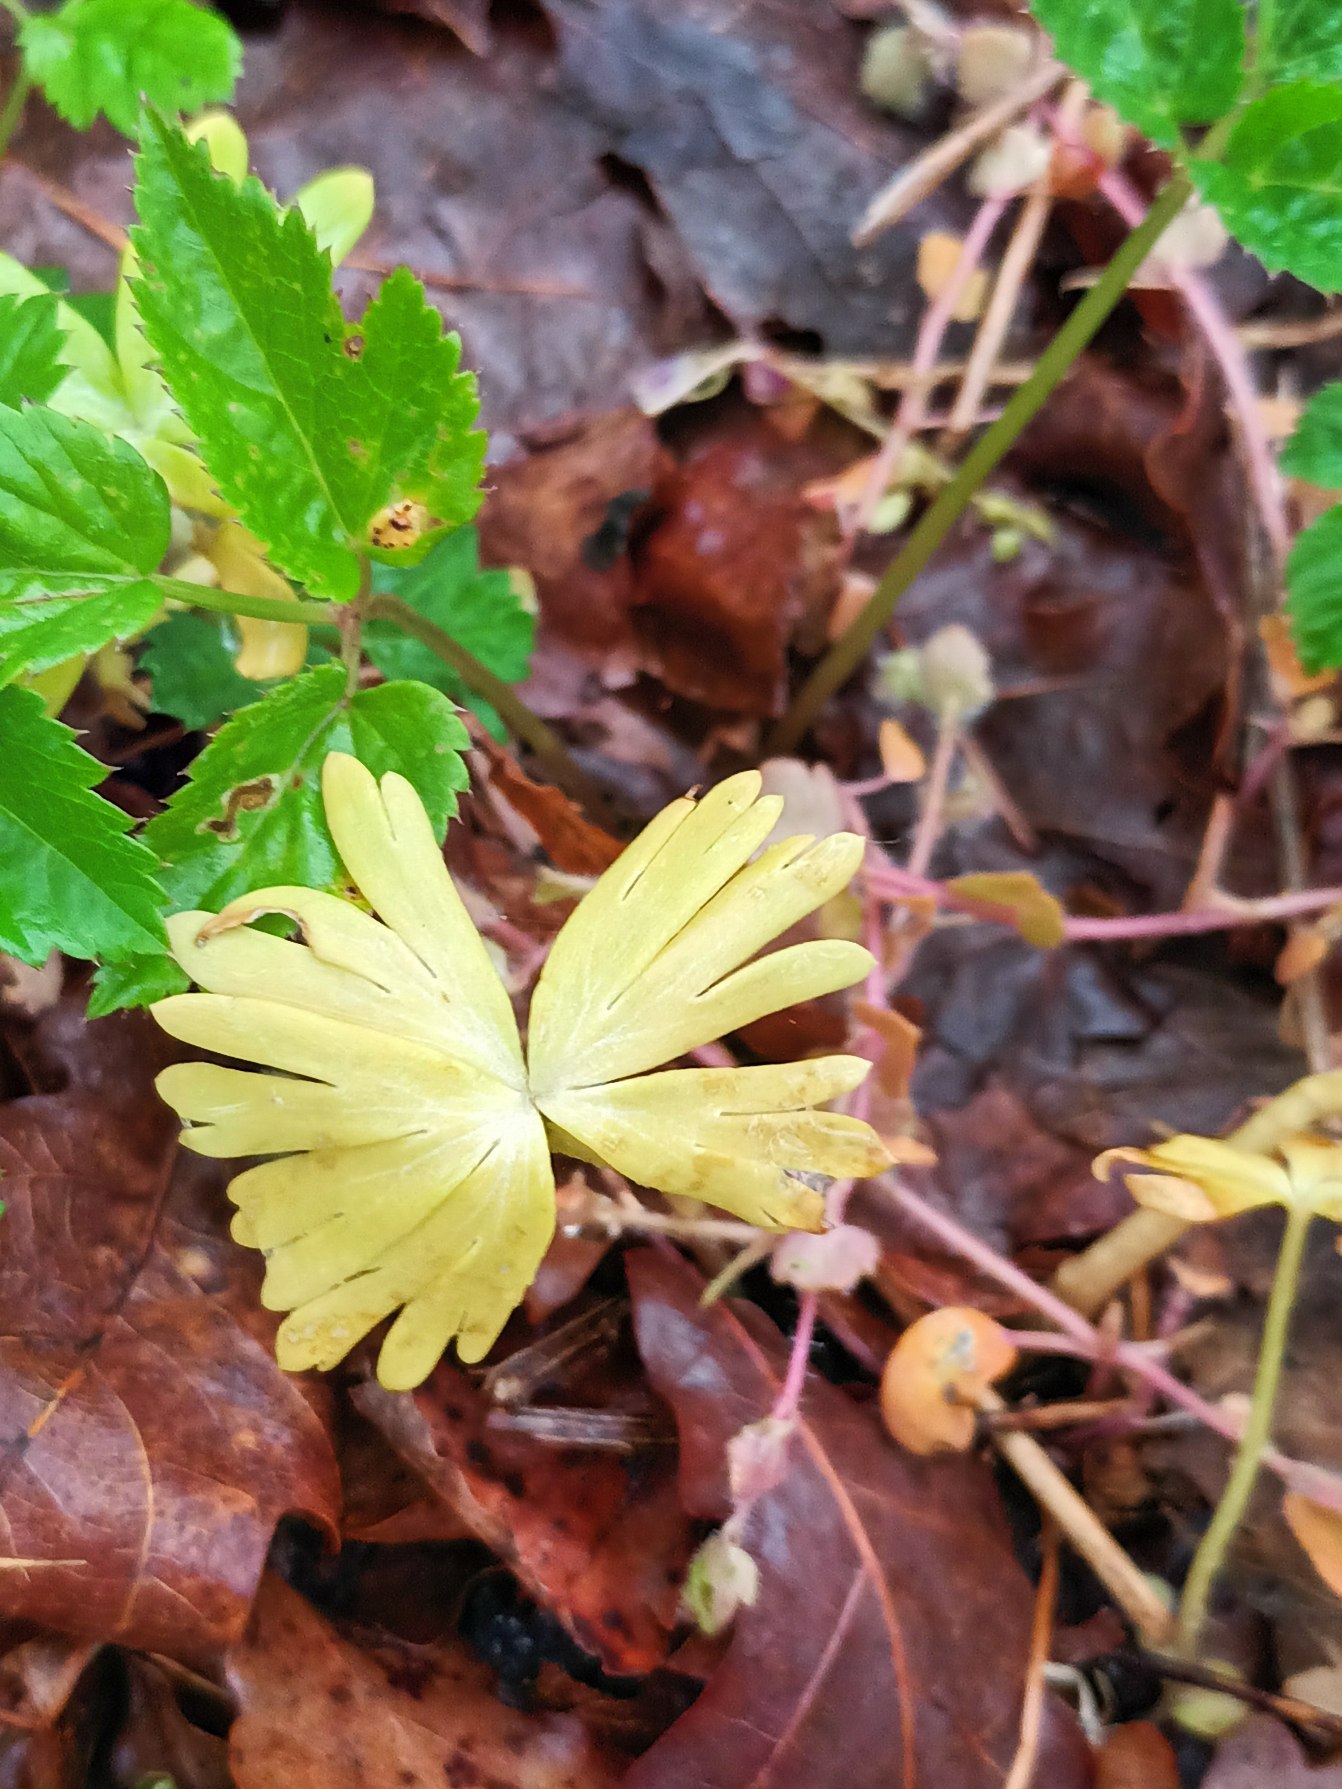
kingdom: Plantae
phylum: Tracheophyta
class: Magnoliopsida
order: Ranunculales
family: Ranunculaceae
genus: Eranthis
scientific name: Eranthis hyemalis
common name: Erantis
